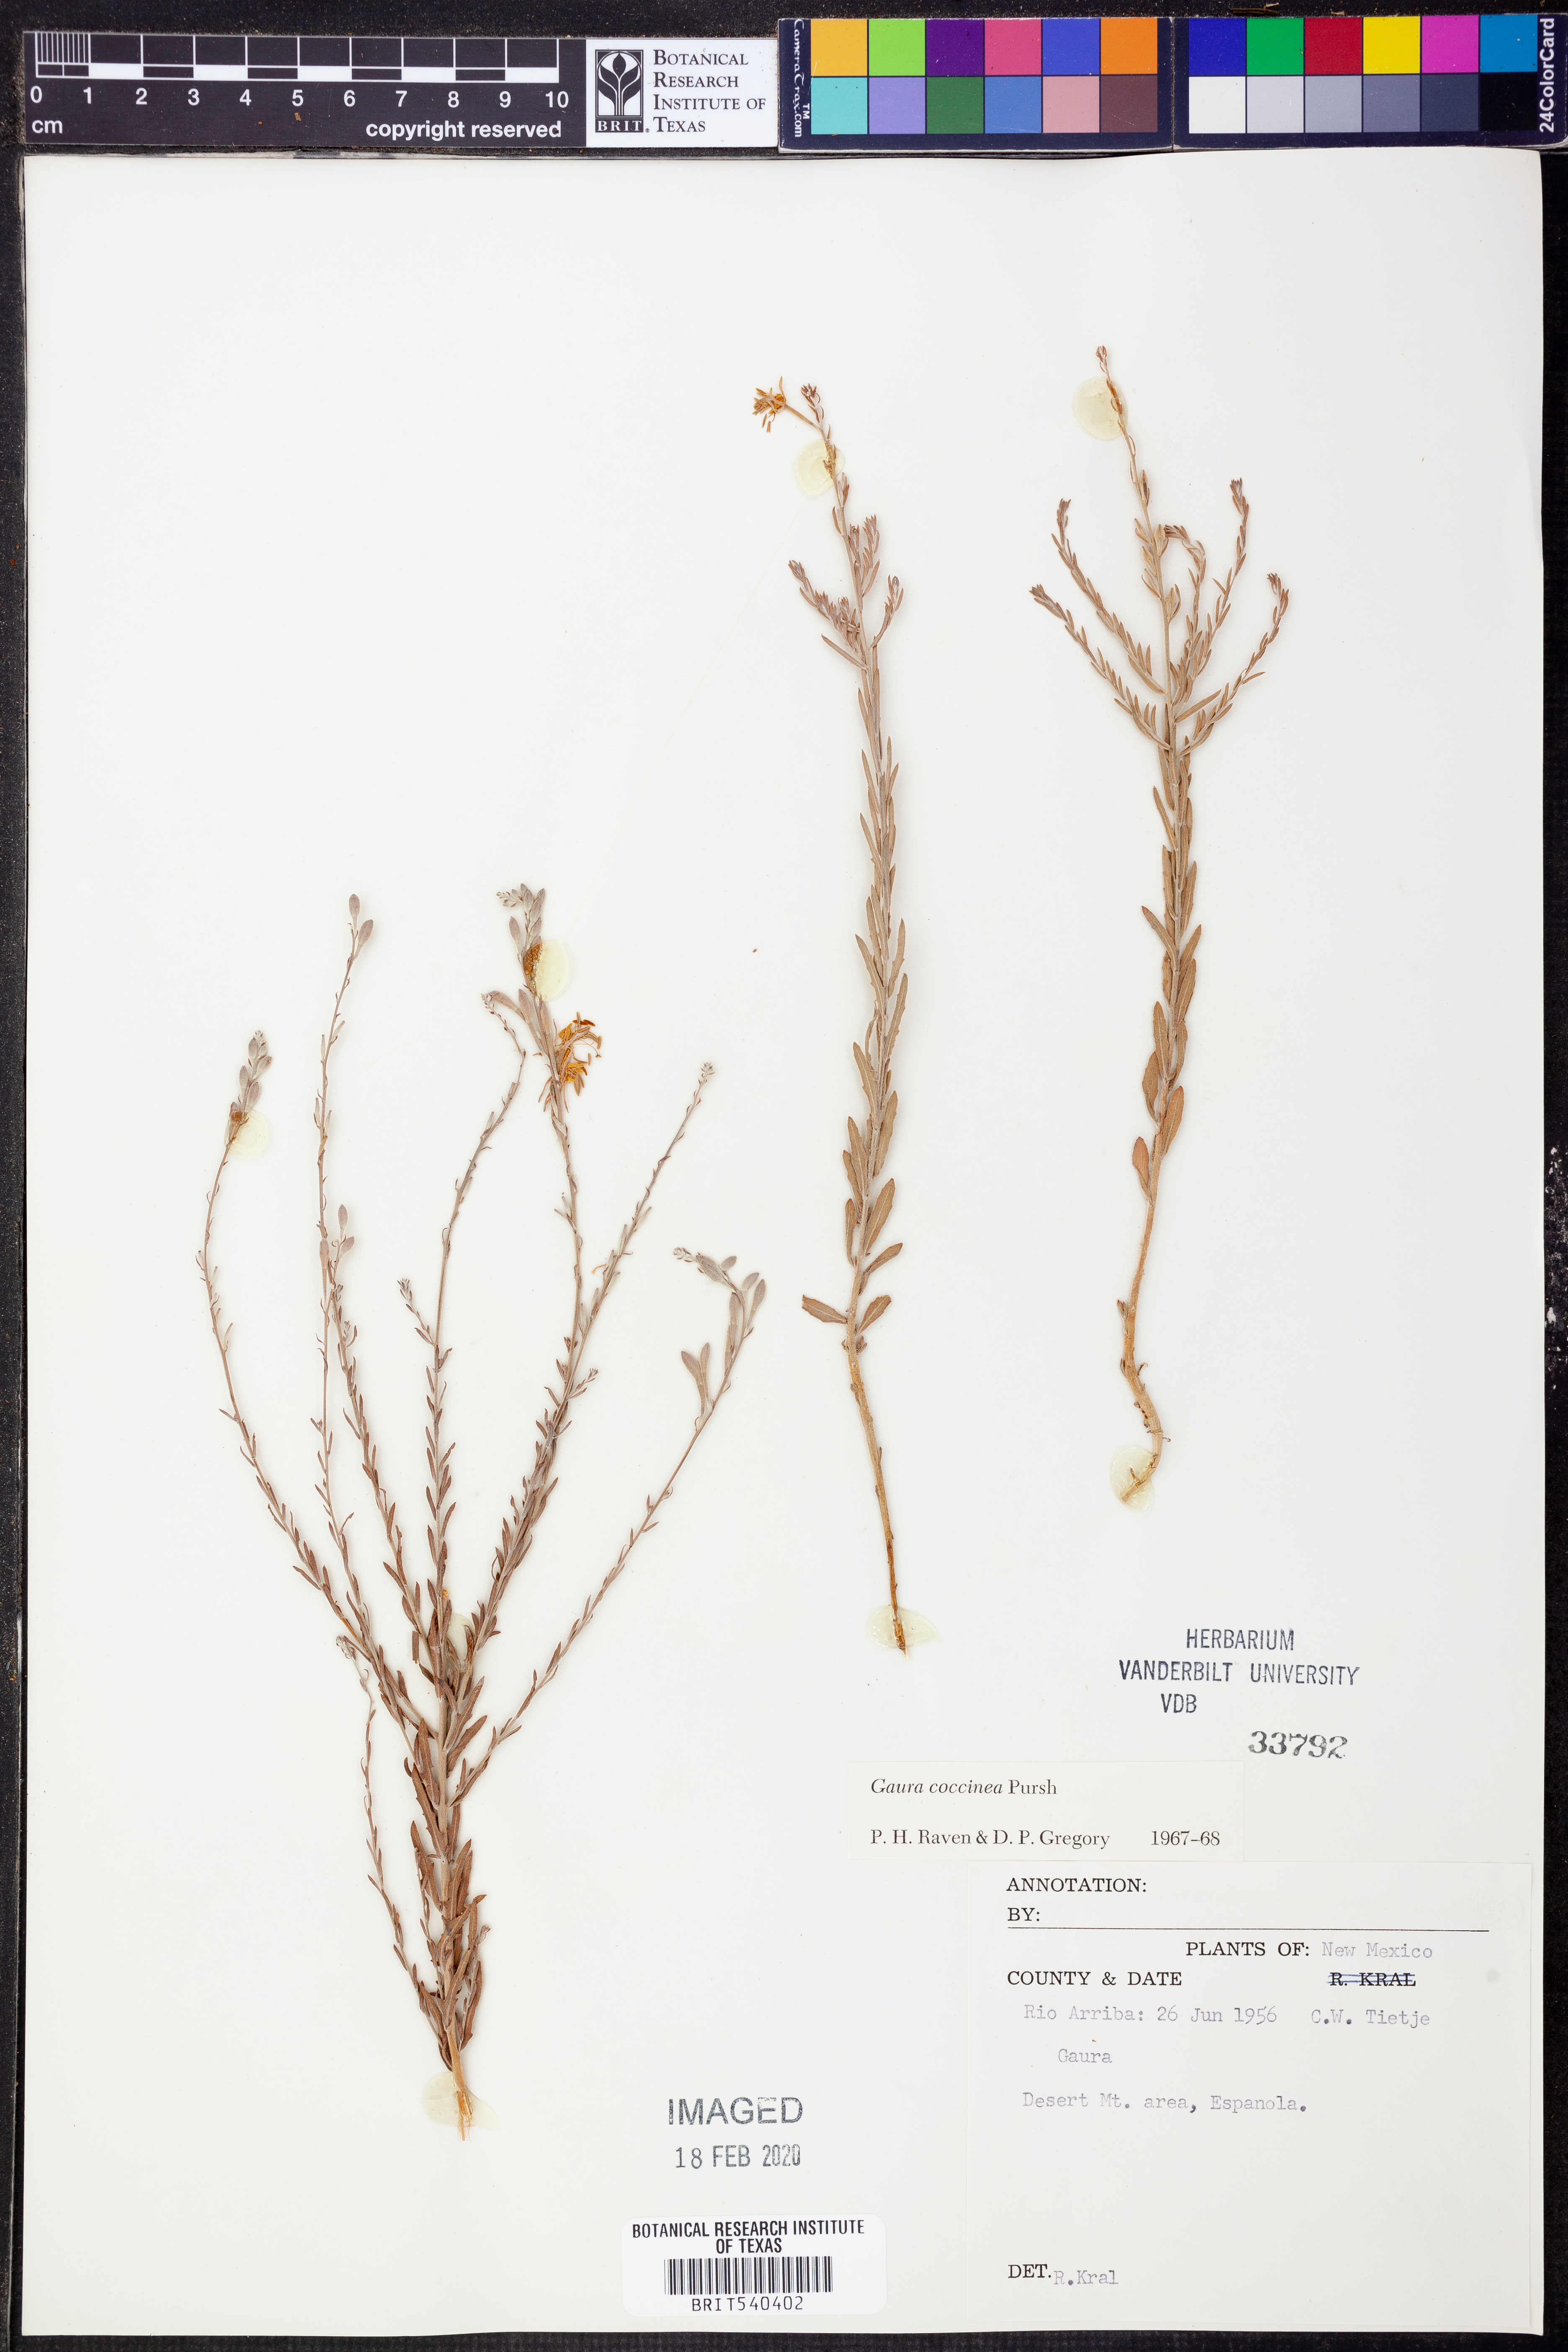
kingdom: Plantae
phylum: Tracheophyta
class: Magnoliopsida
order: Myrtales
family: Onagraceae
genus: Oenothera
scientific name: Oenothera suffrutescens
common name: Scarlet beeblossom
